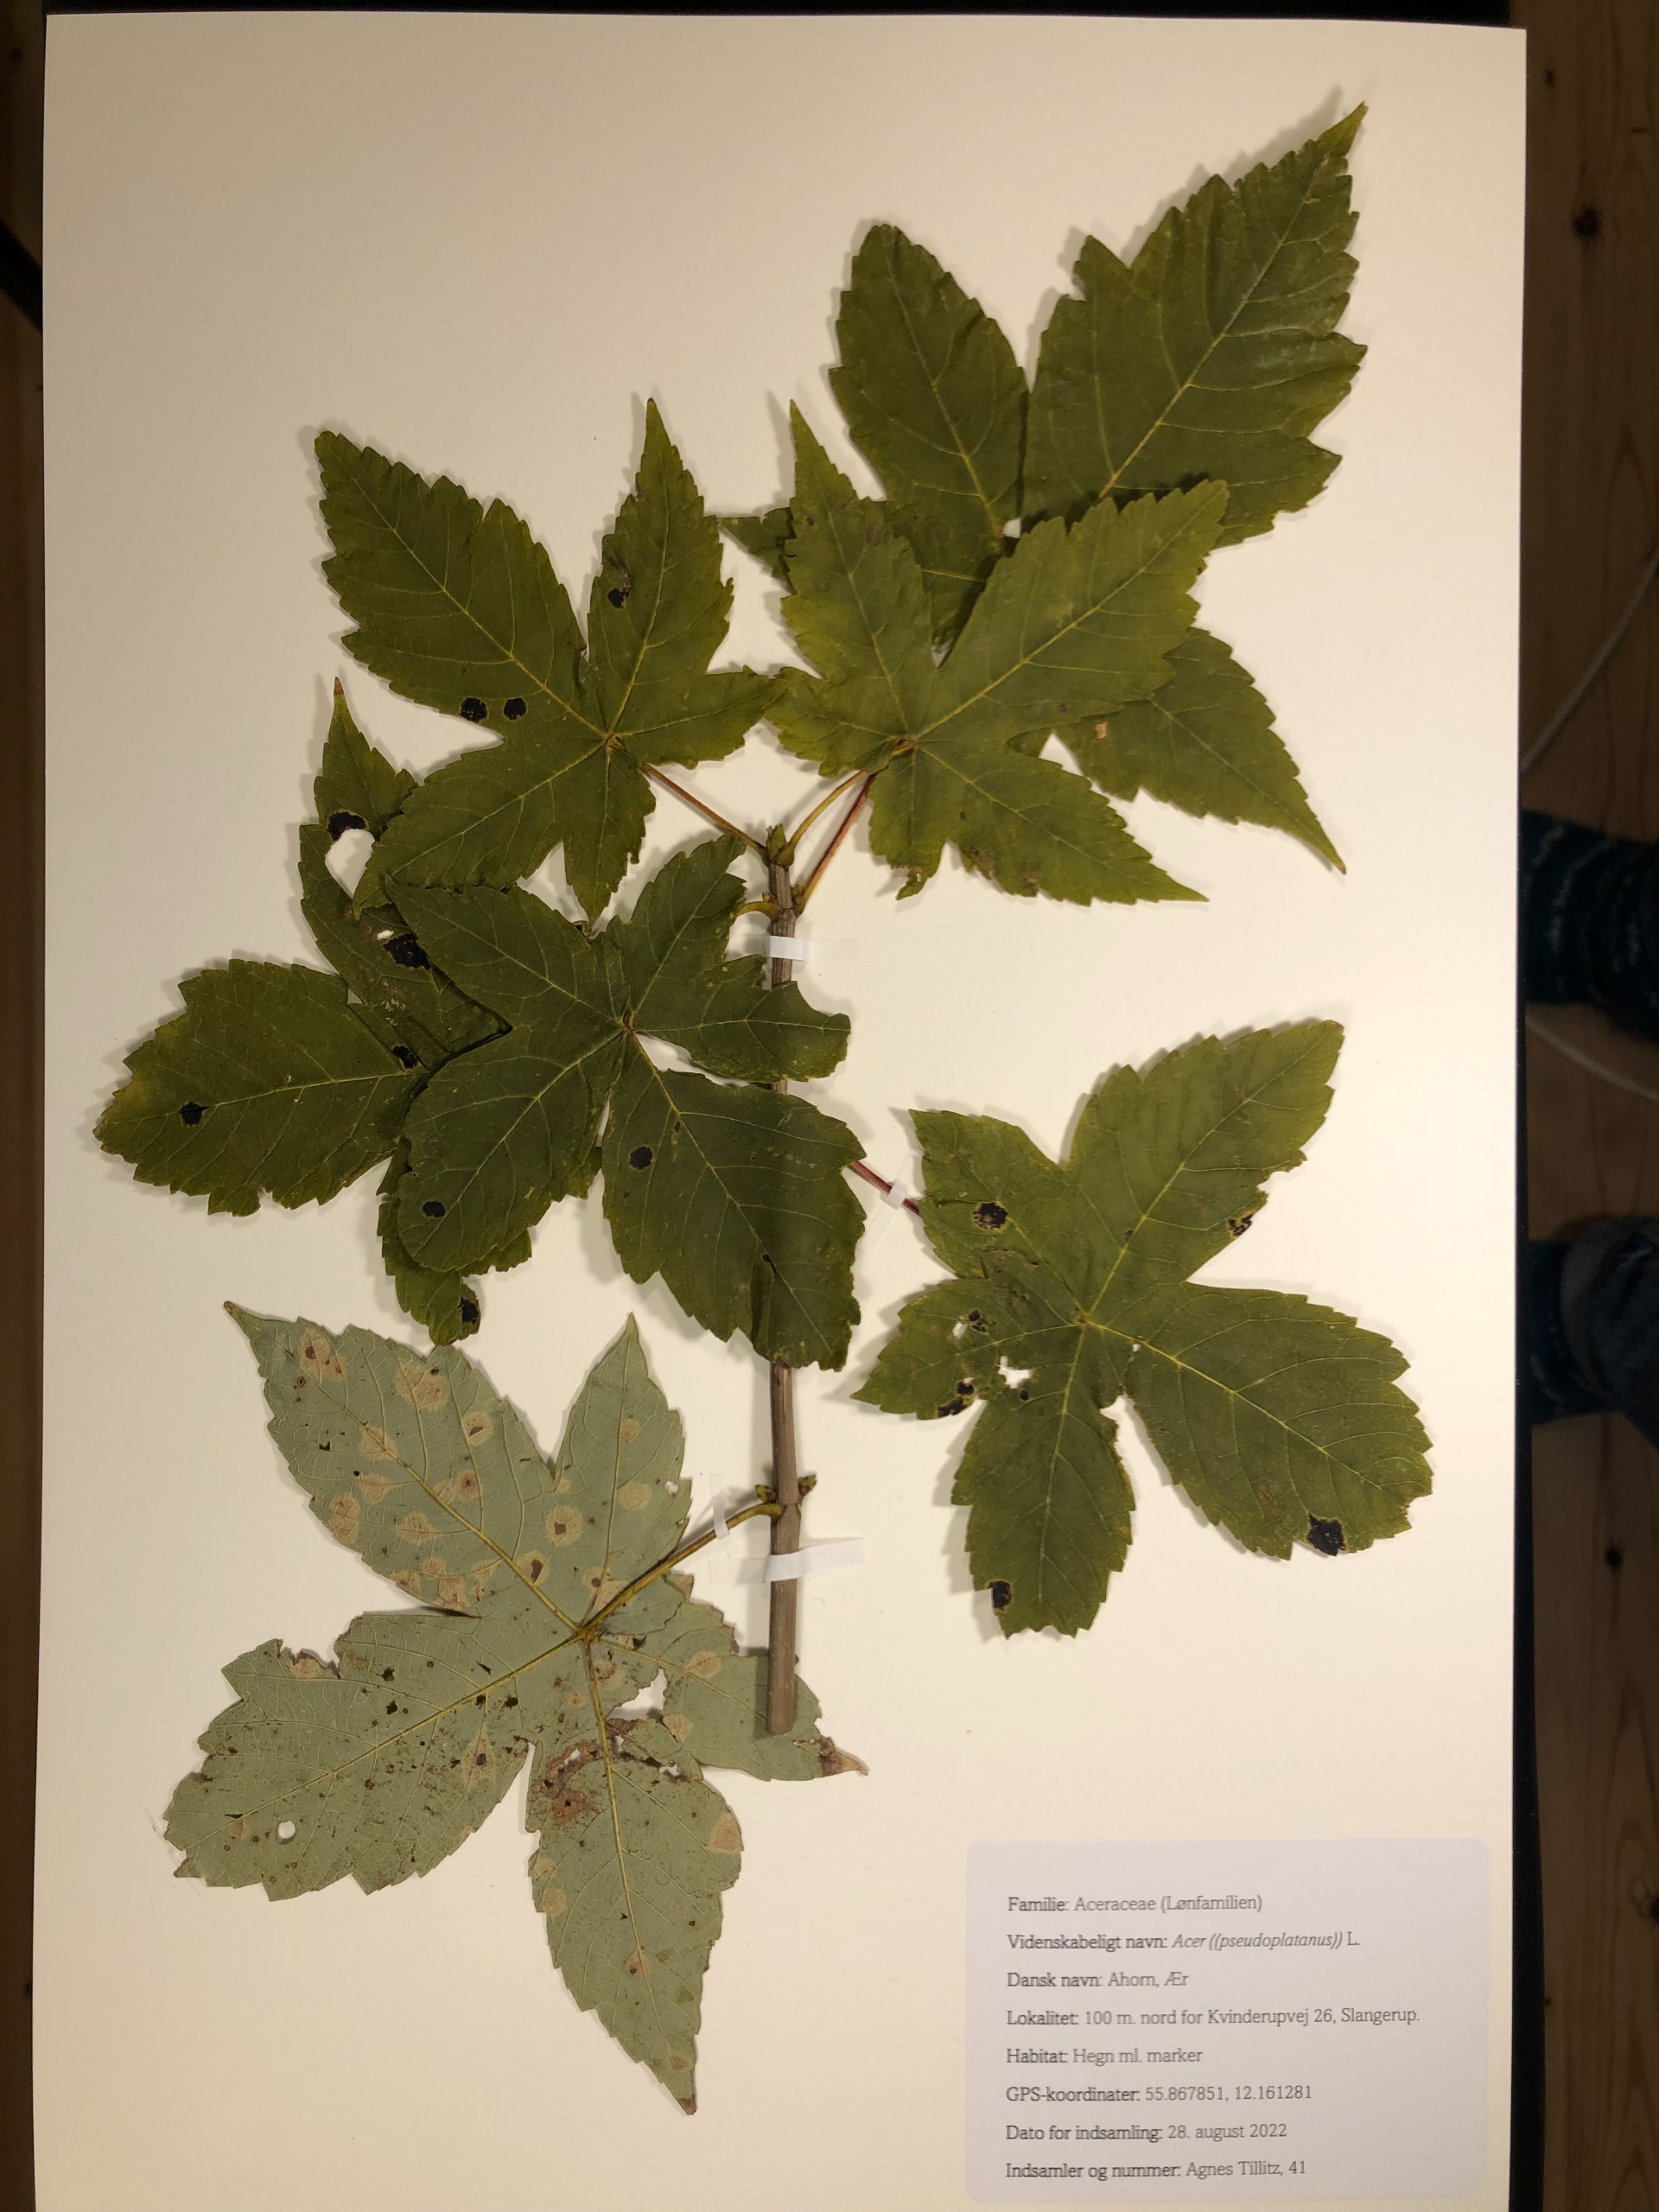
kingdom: Plantae
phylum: Tracheophyta
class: Magnoliopsida
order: Sapindales
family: Sapindaceae
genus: Acer
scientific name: Acer pseudoplatanus
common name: Ahorn
